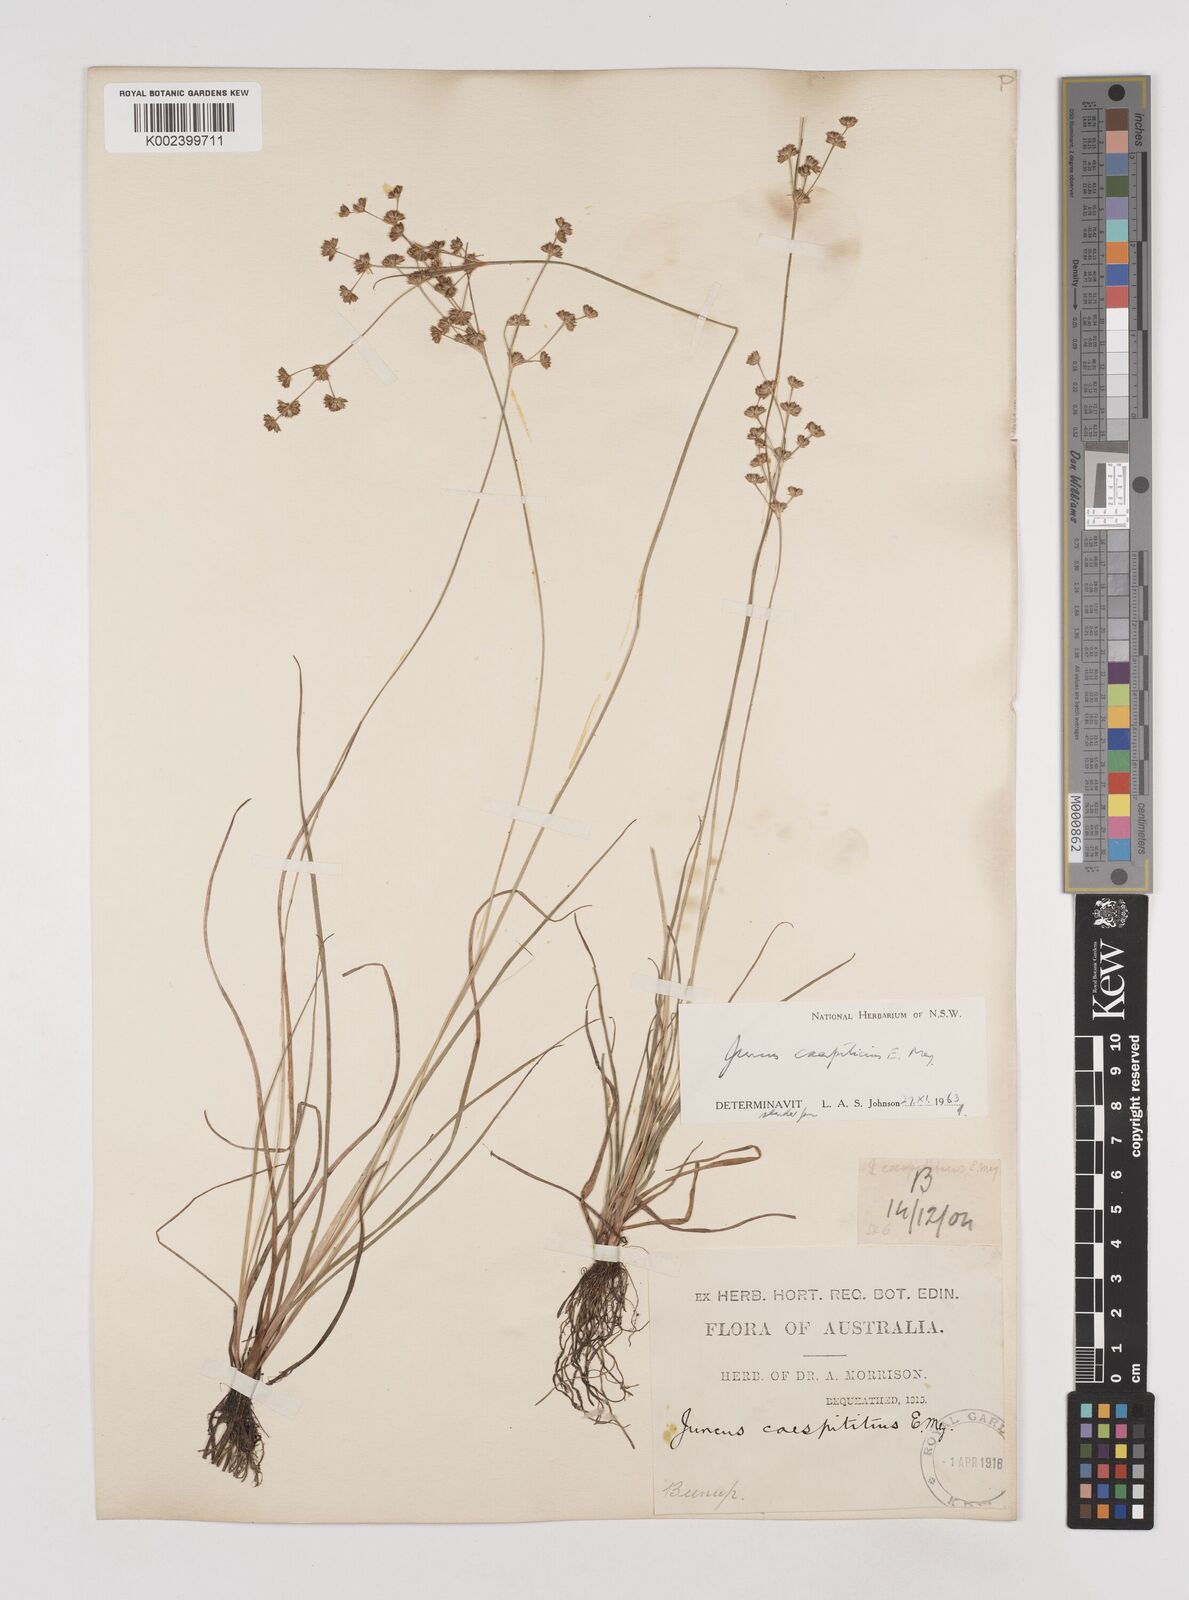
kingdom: Plantae
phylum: Tracheophyta
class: Liliopsida
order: Poales
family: Juncaceae
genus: Juncus
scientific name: Juncus caespiticius
